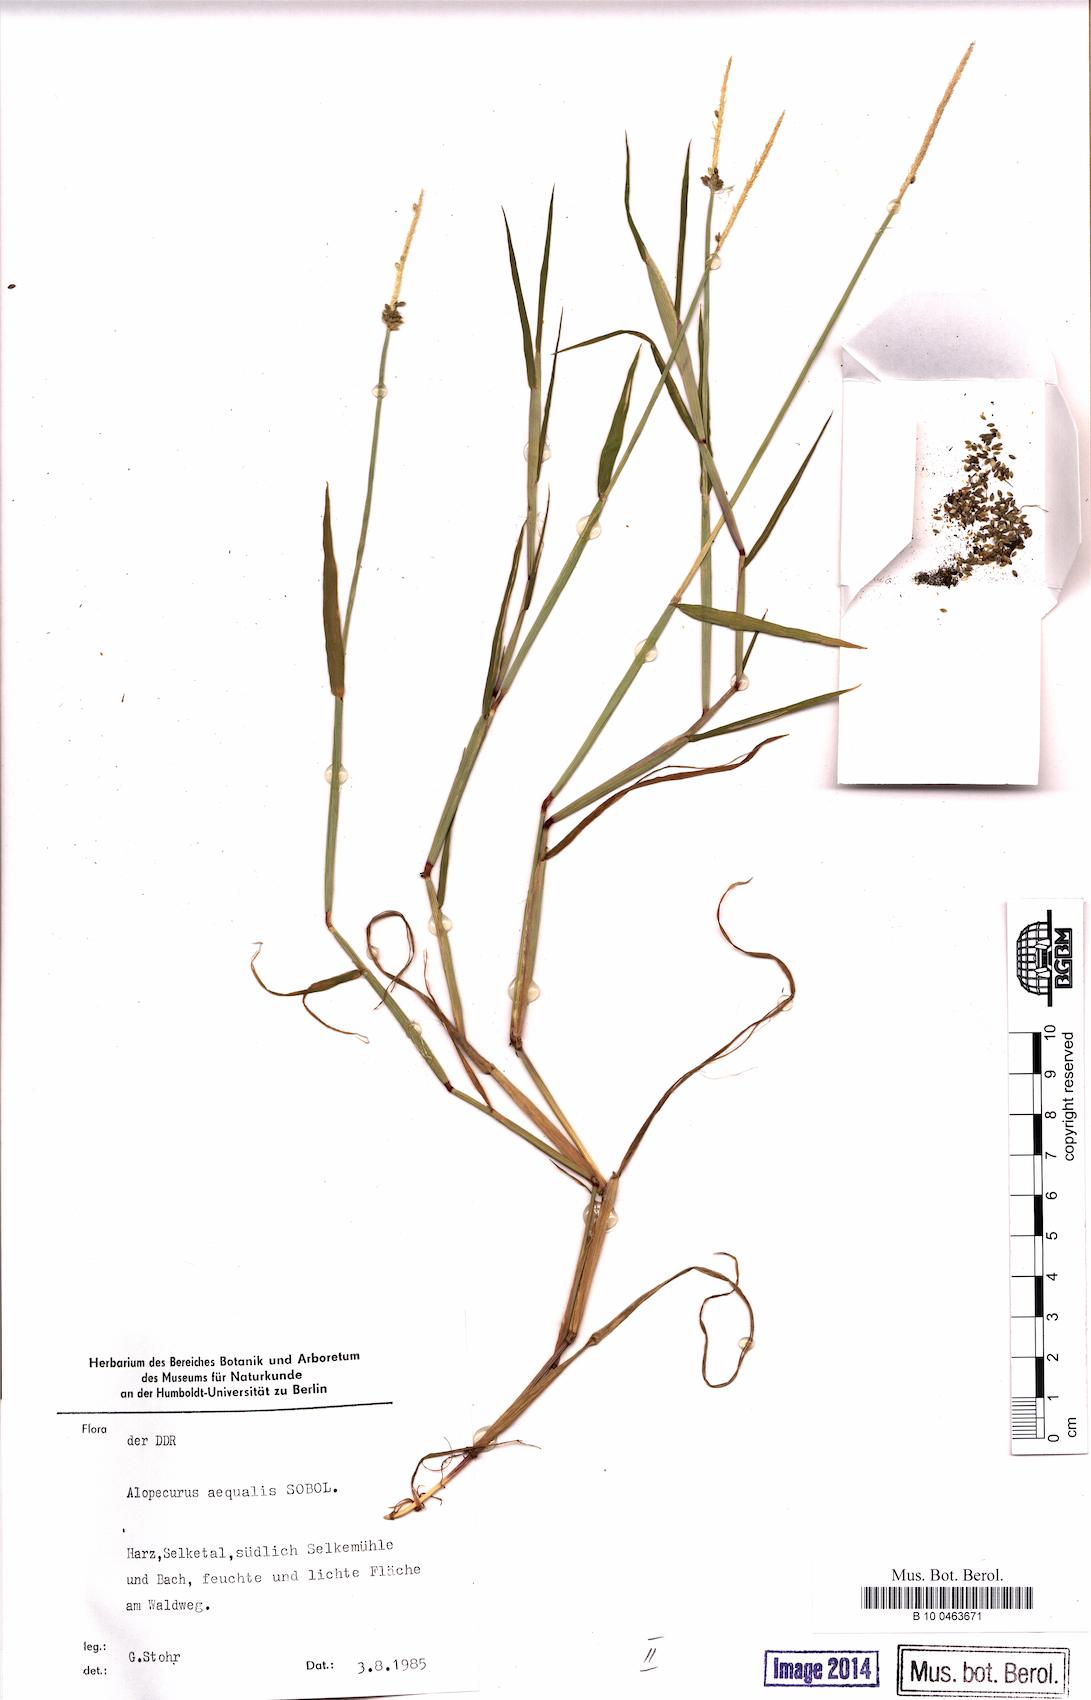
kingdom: Plantae
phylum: Tracheophyta
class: Liliopsida
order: Poales
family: Poaceae
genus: Alopecurus
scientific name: Alopecurus aequalis
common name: Orange foxtail
